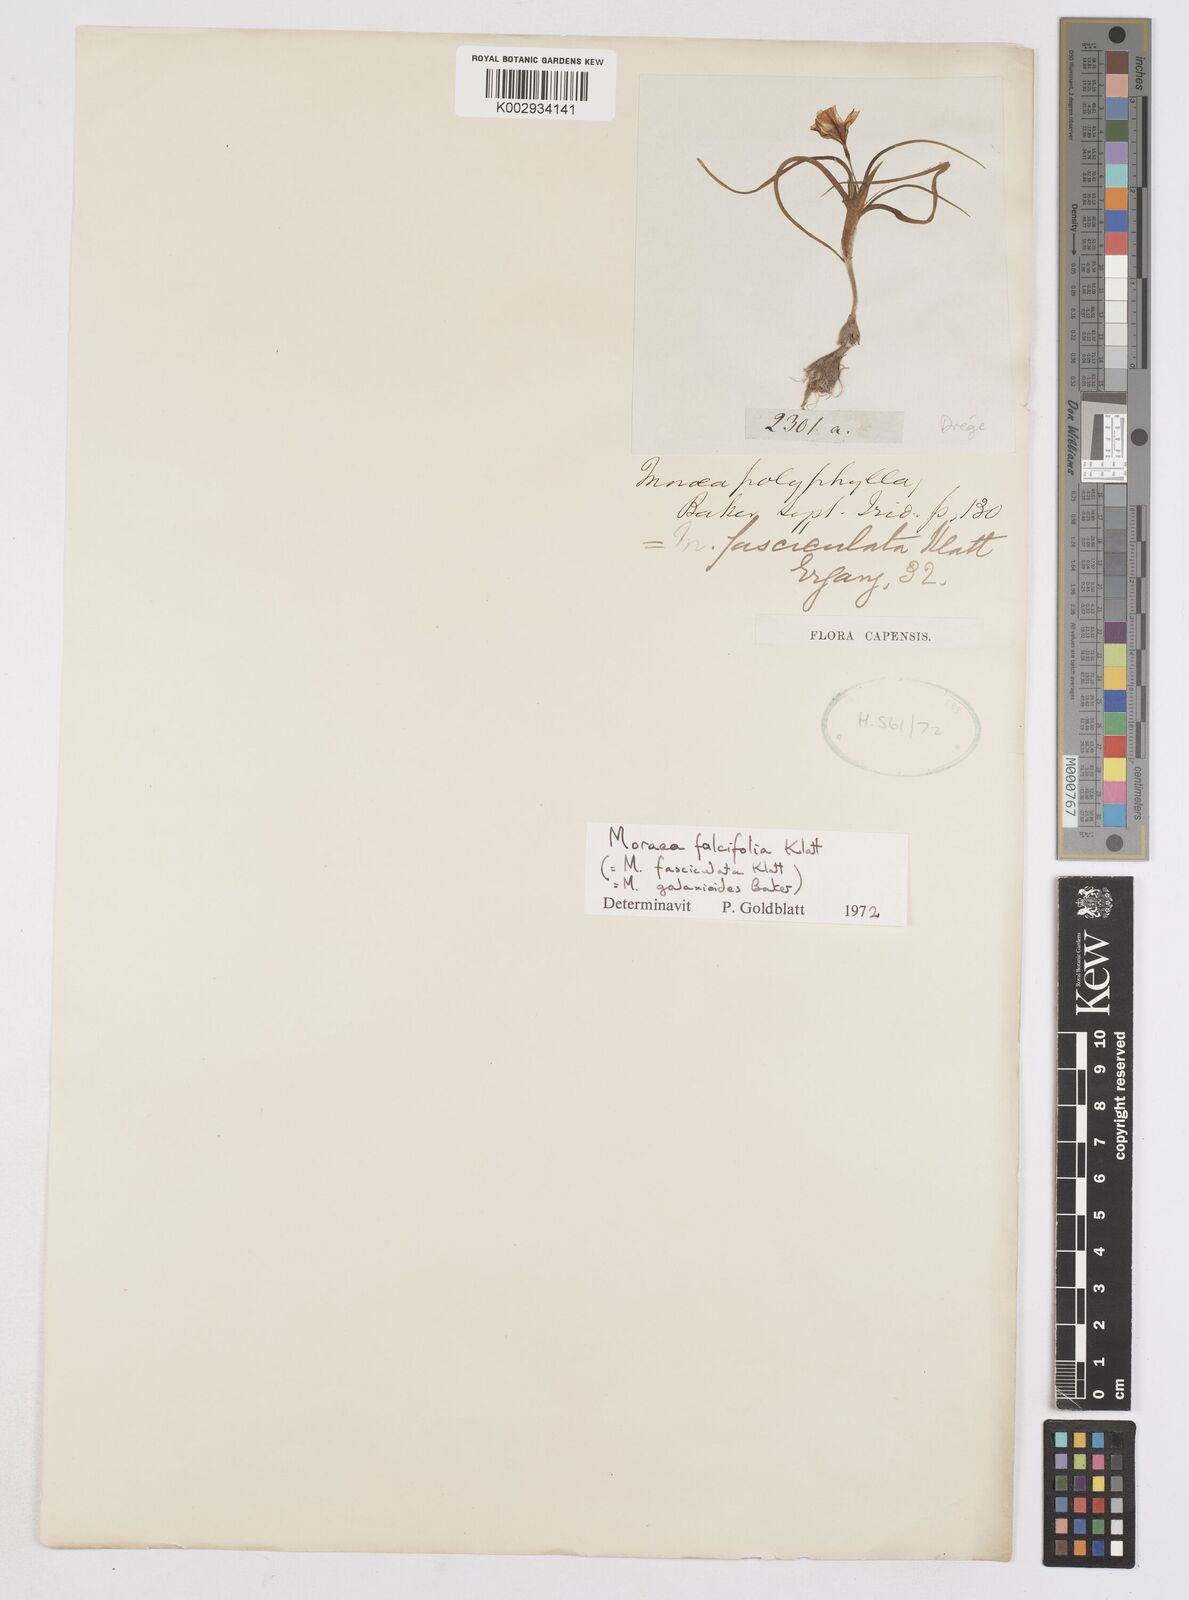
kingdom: Plantae
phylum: Tracheophyta
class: Liliopsida
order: Asparagales
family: Iridaceae
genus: Moraea
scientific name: Moraea falcifolia
